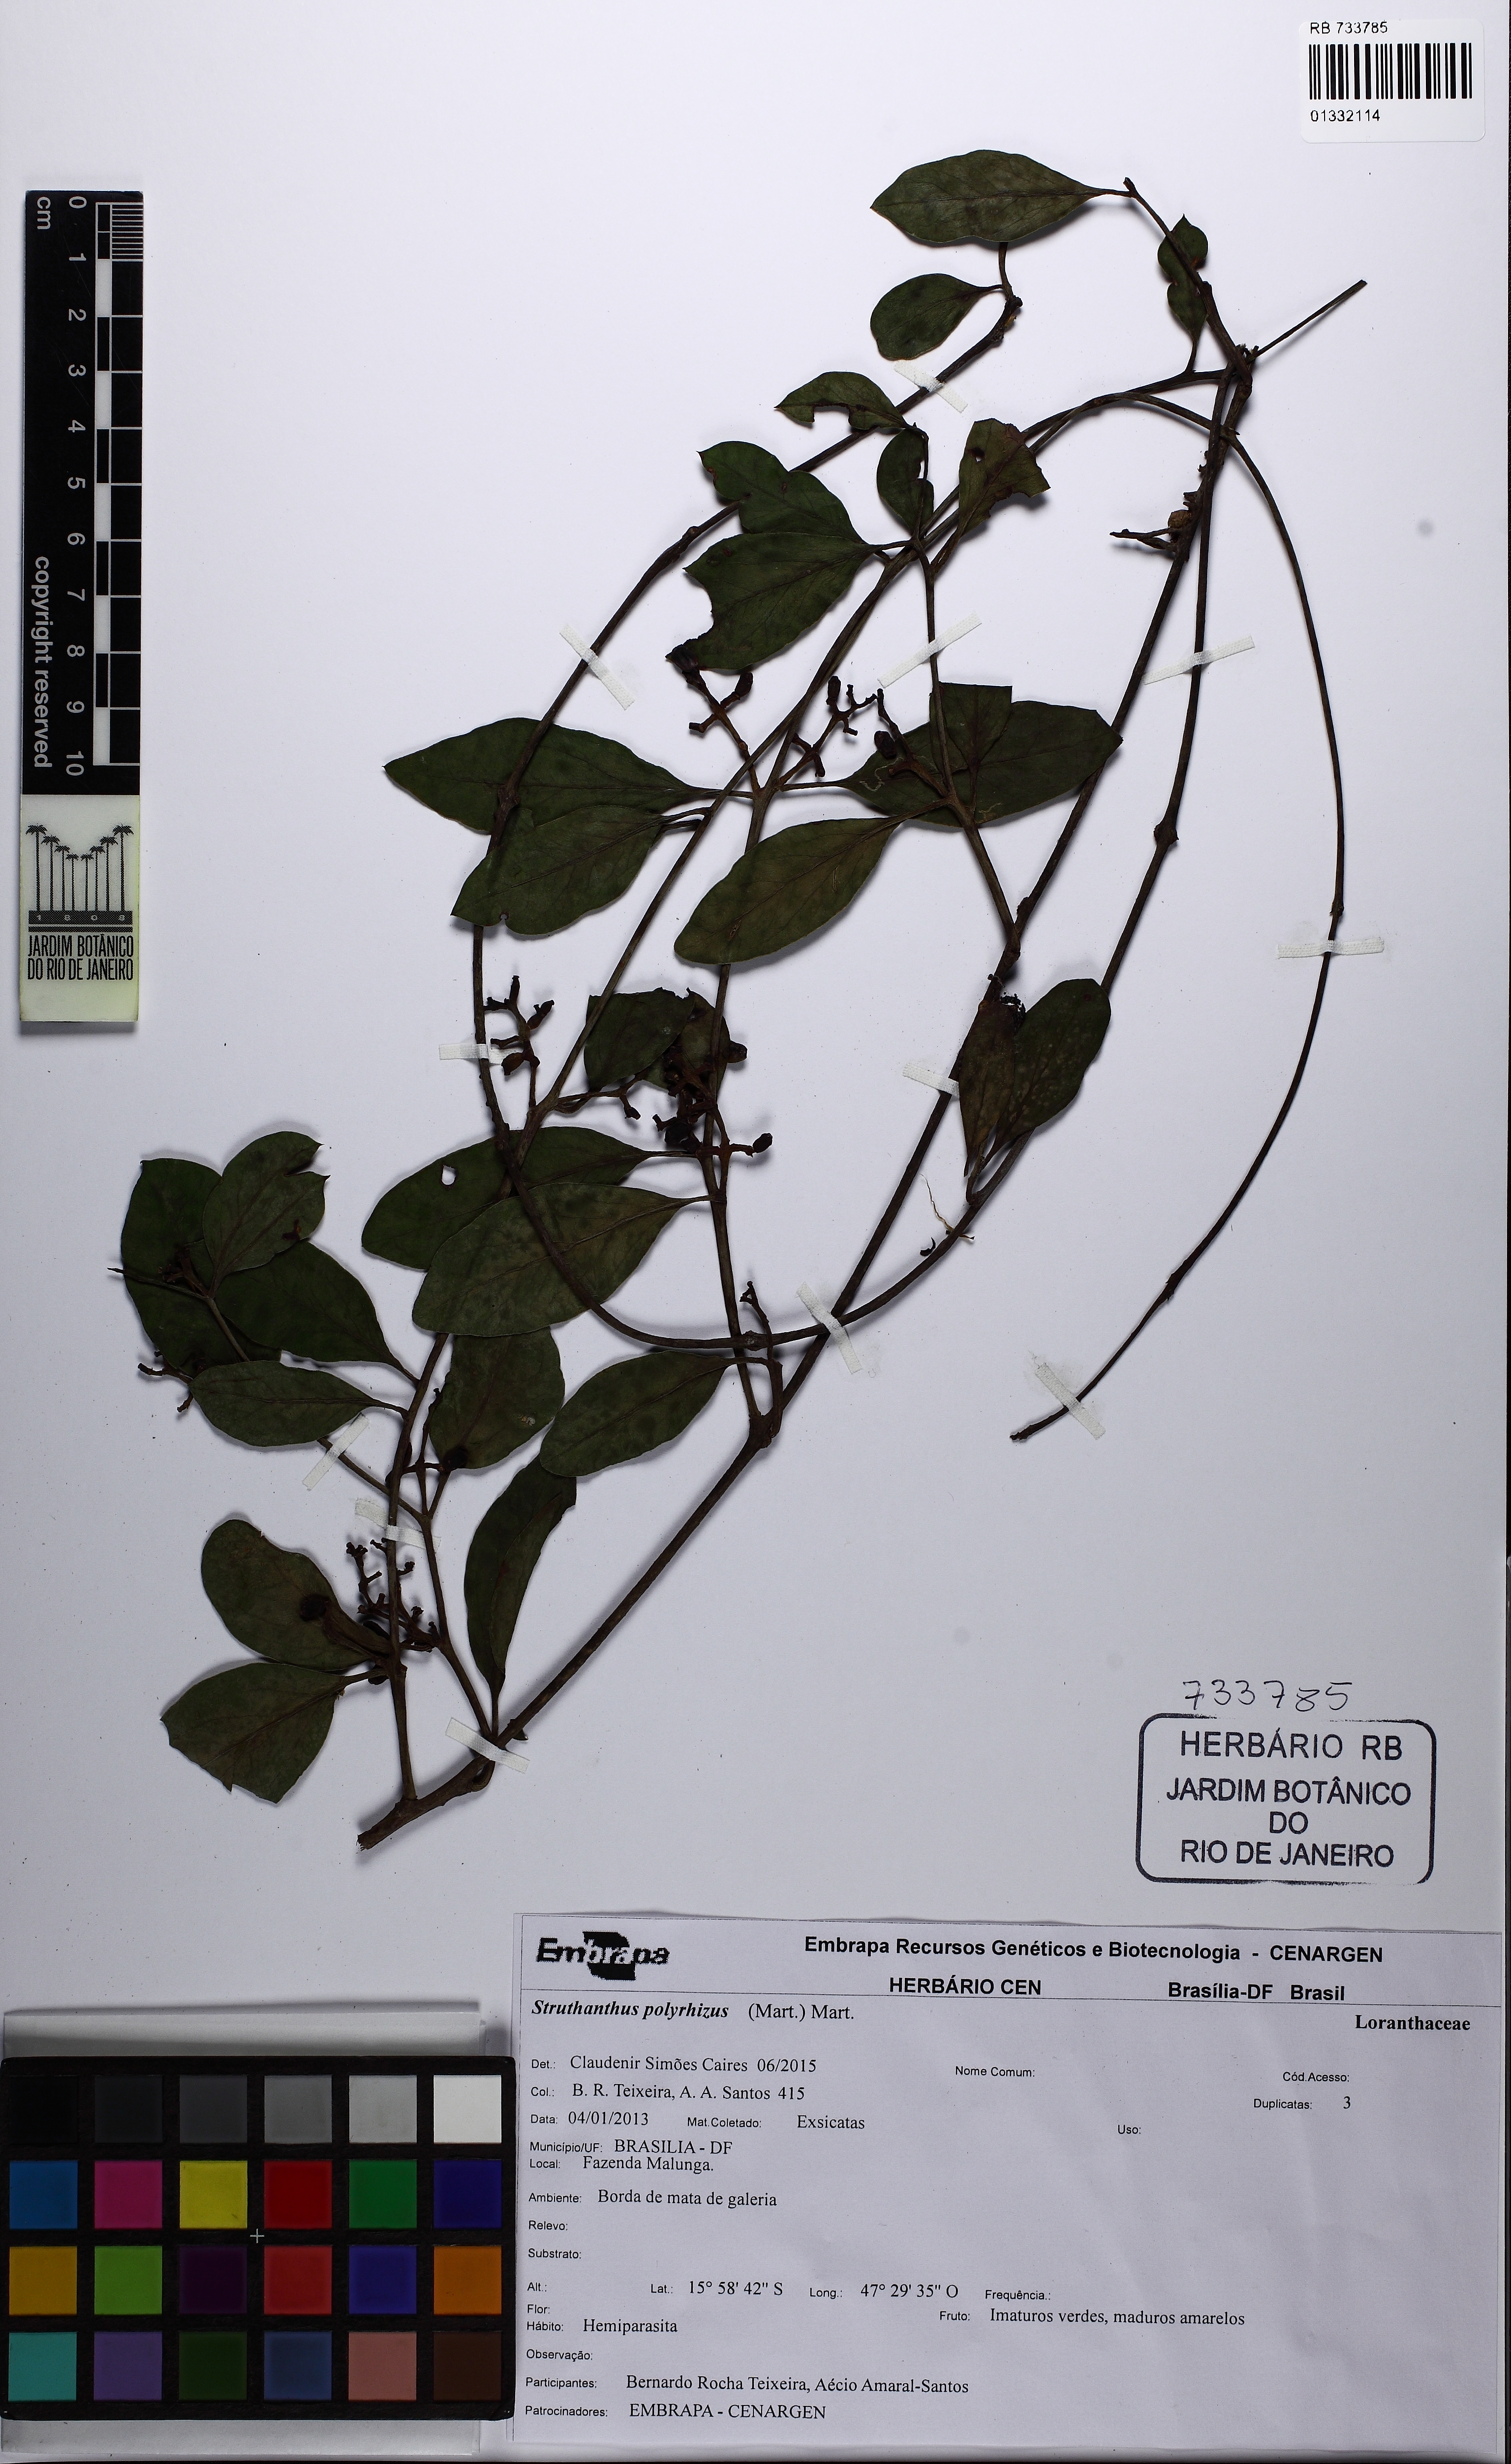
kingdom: Plantae
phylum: Tracheophyta
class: Magnoliopsida
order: Santalales
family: Loranthaceae
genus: Struthanthus
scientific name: Struthanthus retusus
